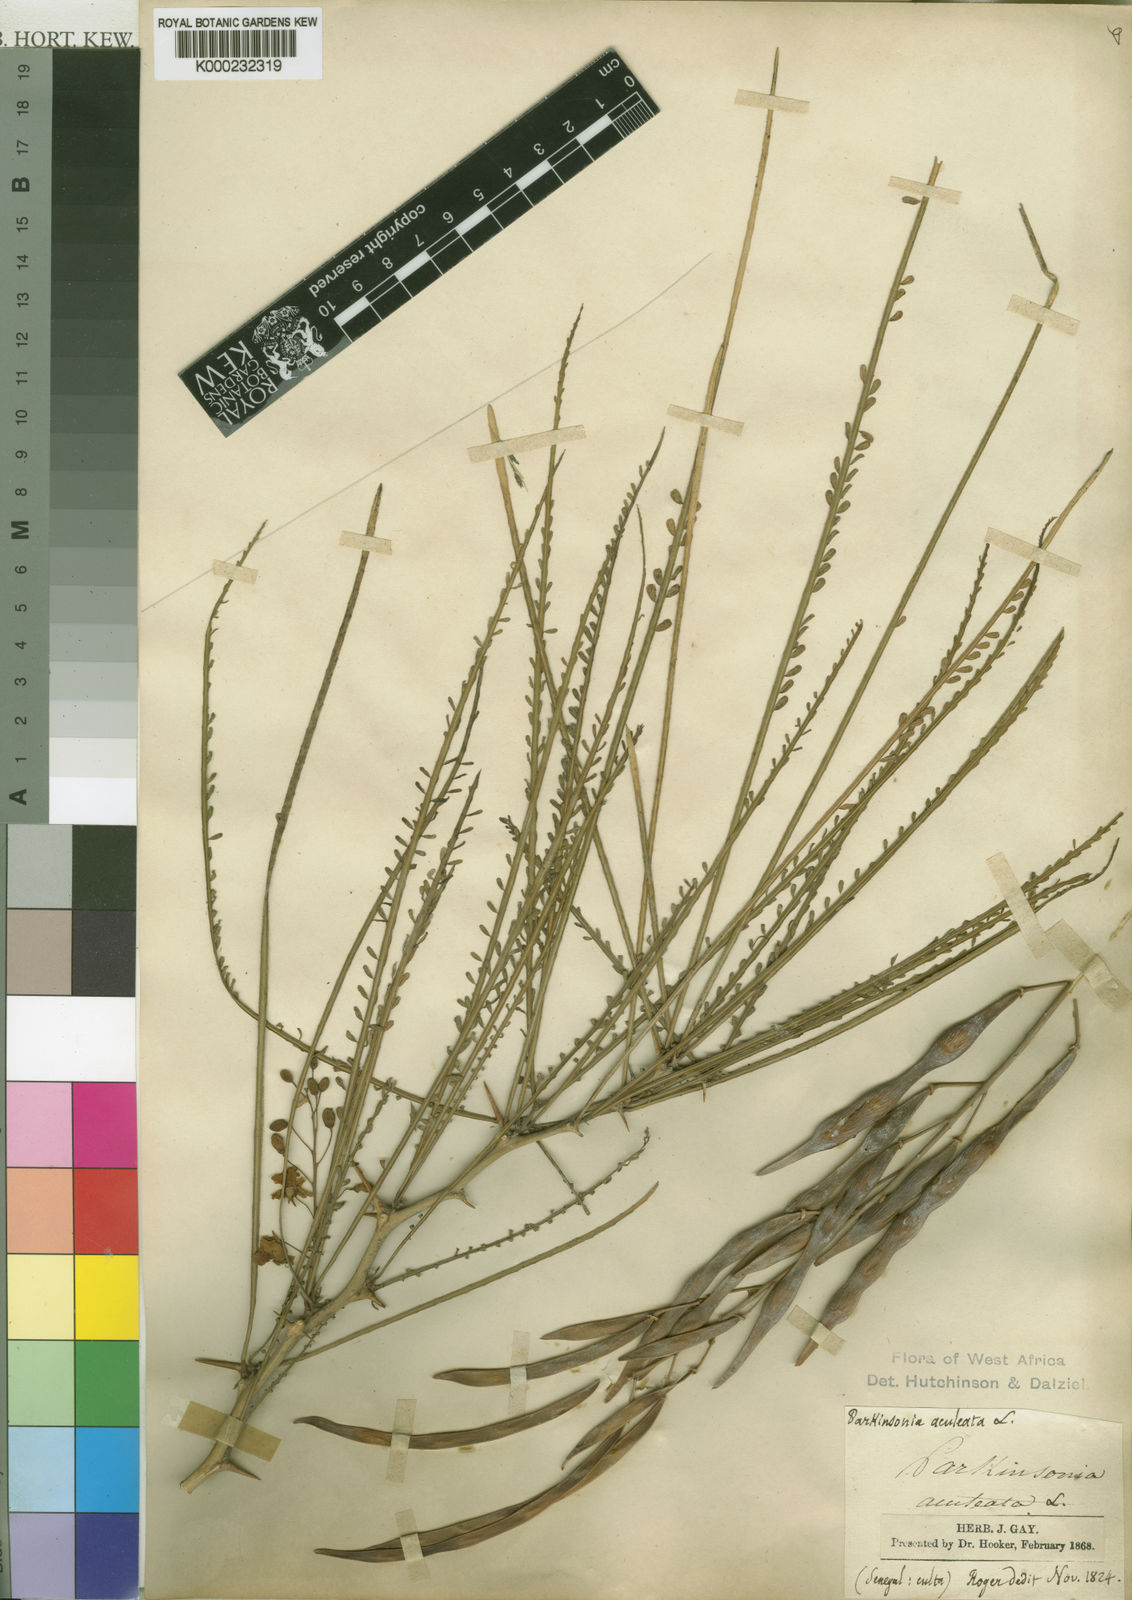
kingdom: Plantae
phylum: Tracheophyta
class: Magnoliopsida
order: Fabales
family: Fabaceae
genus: Parkinsonia
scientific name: Parkinsonia aculeata
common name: Jerusalem thorn
